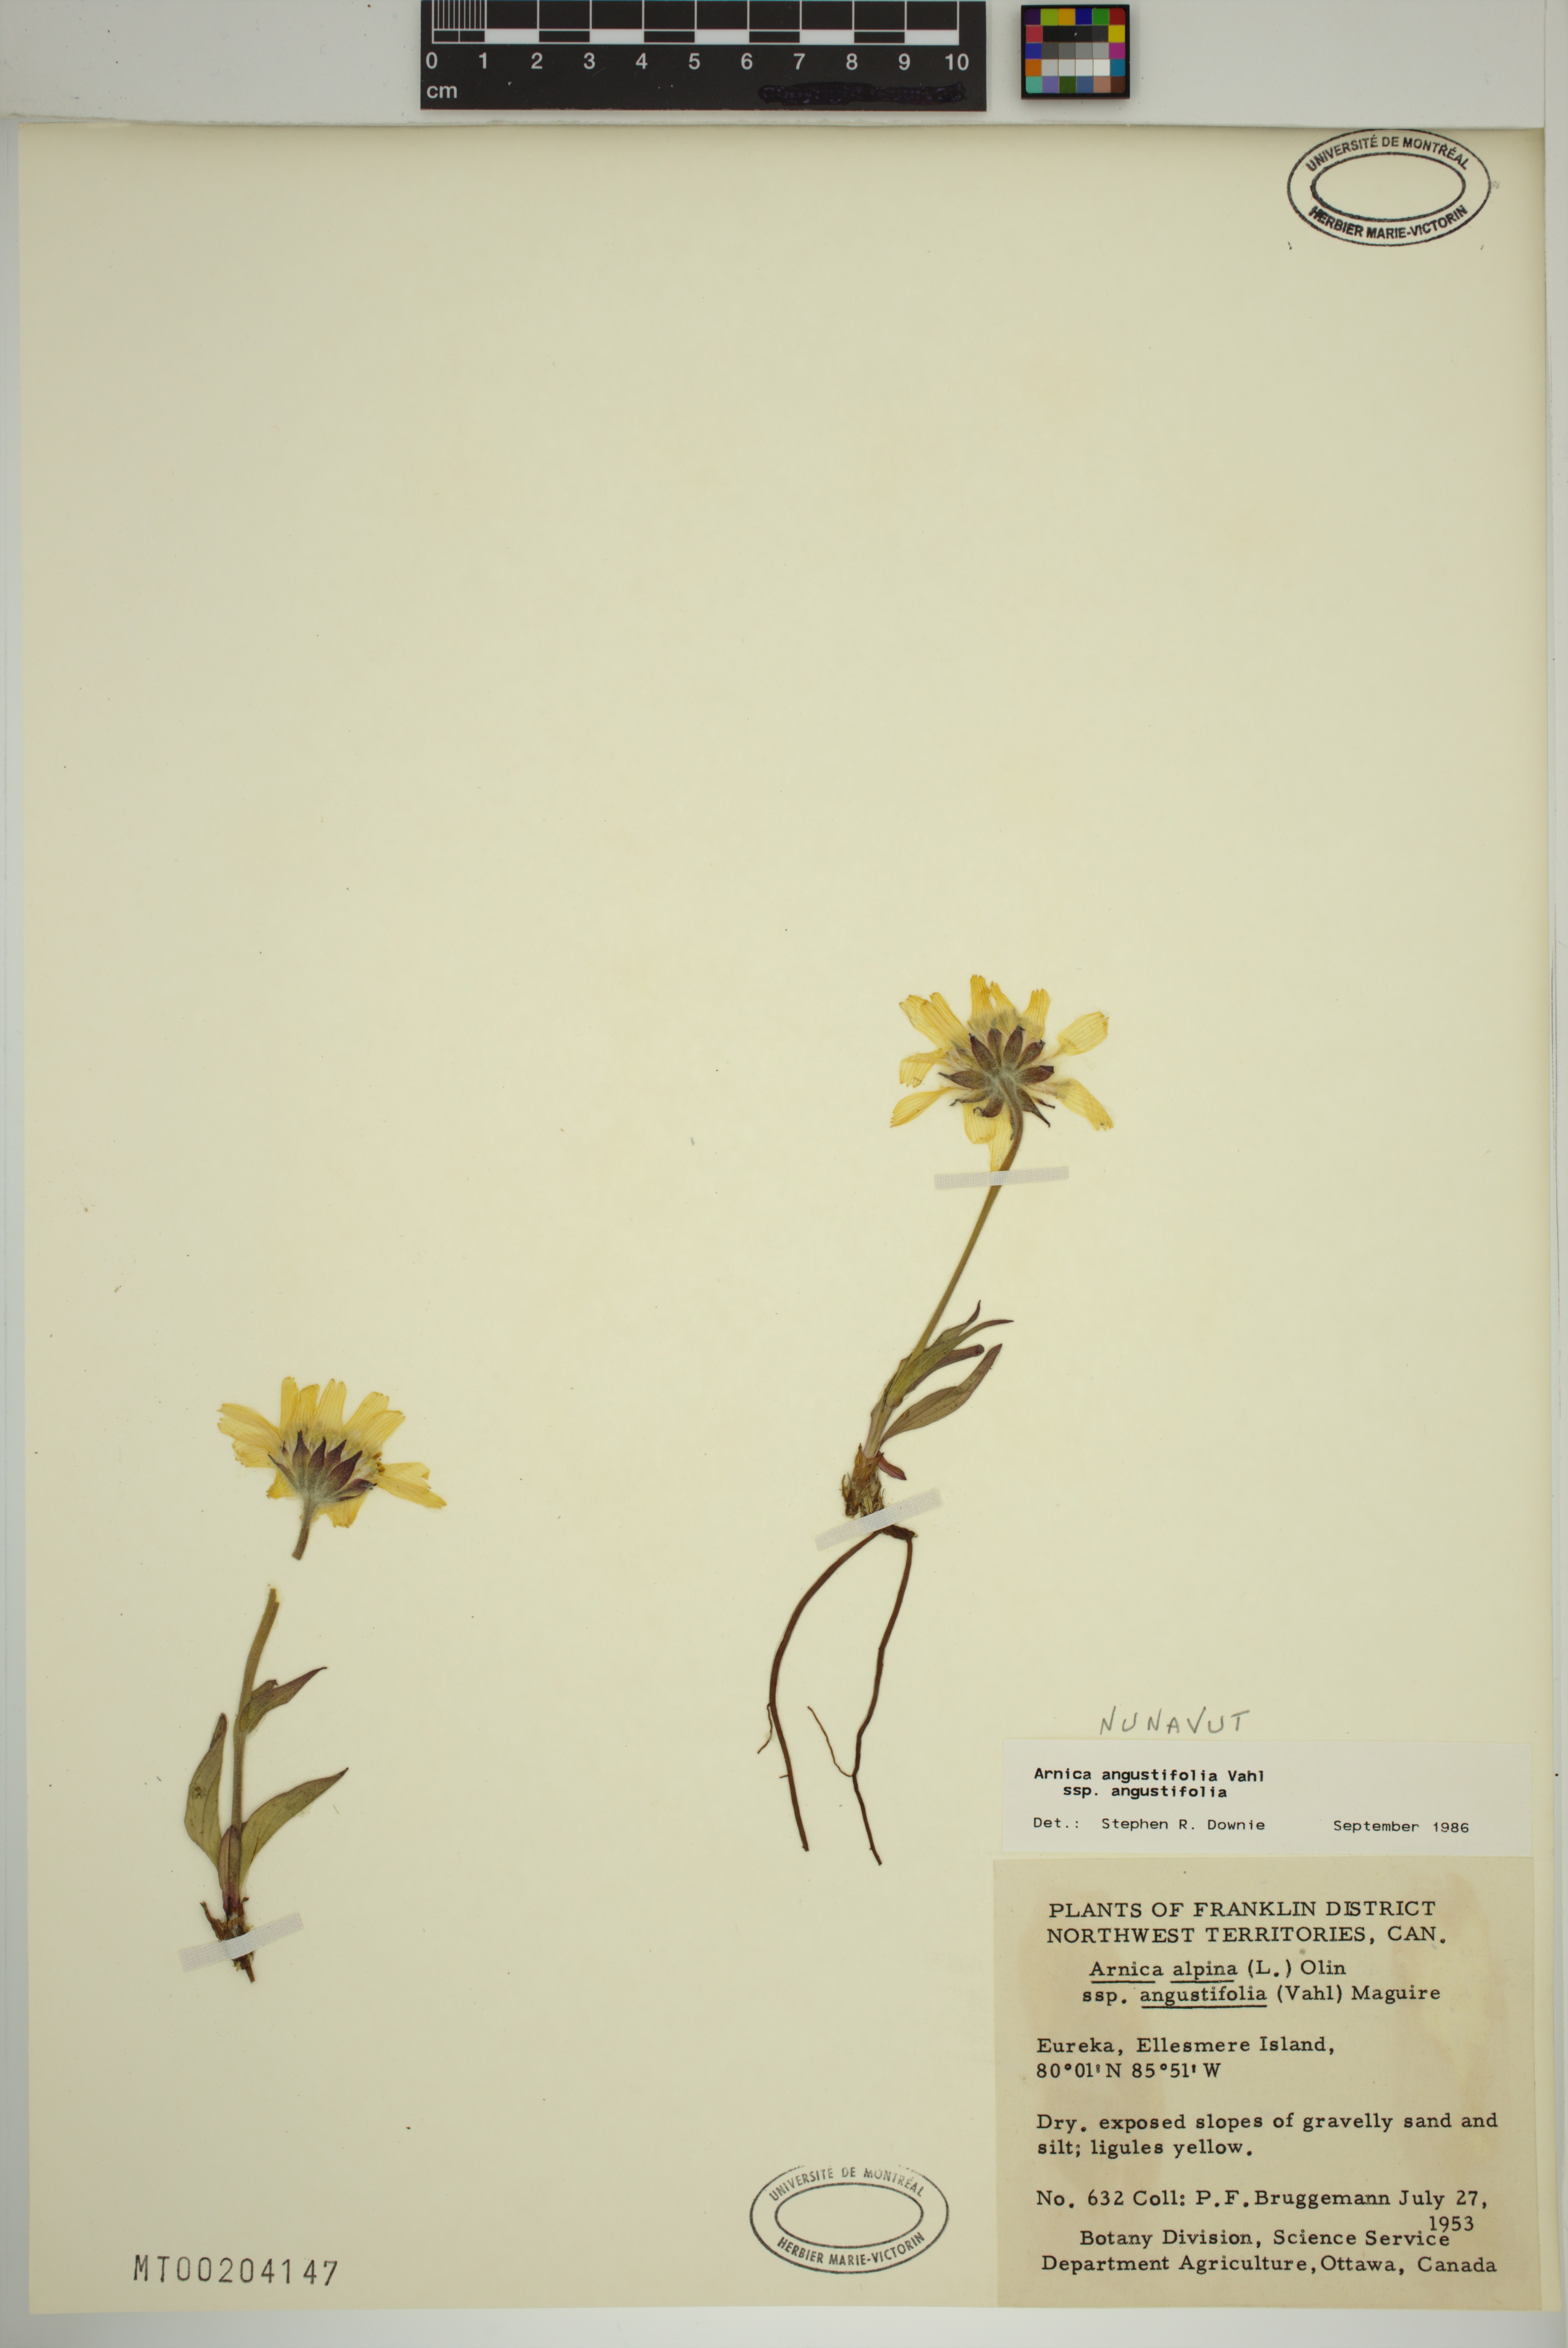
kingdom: Plantae
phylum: Tracheophyta
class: Magnoliopsida
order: Asterales
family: Asteraceae
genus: Arnica
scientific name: Arnica angustifolia
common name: Arctic arnica
